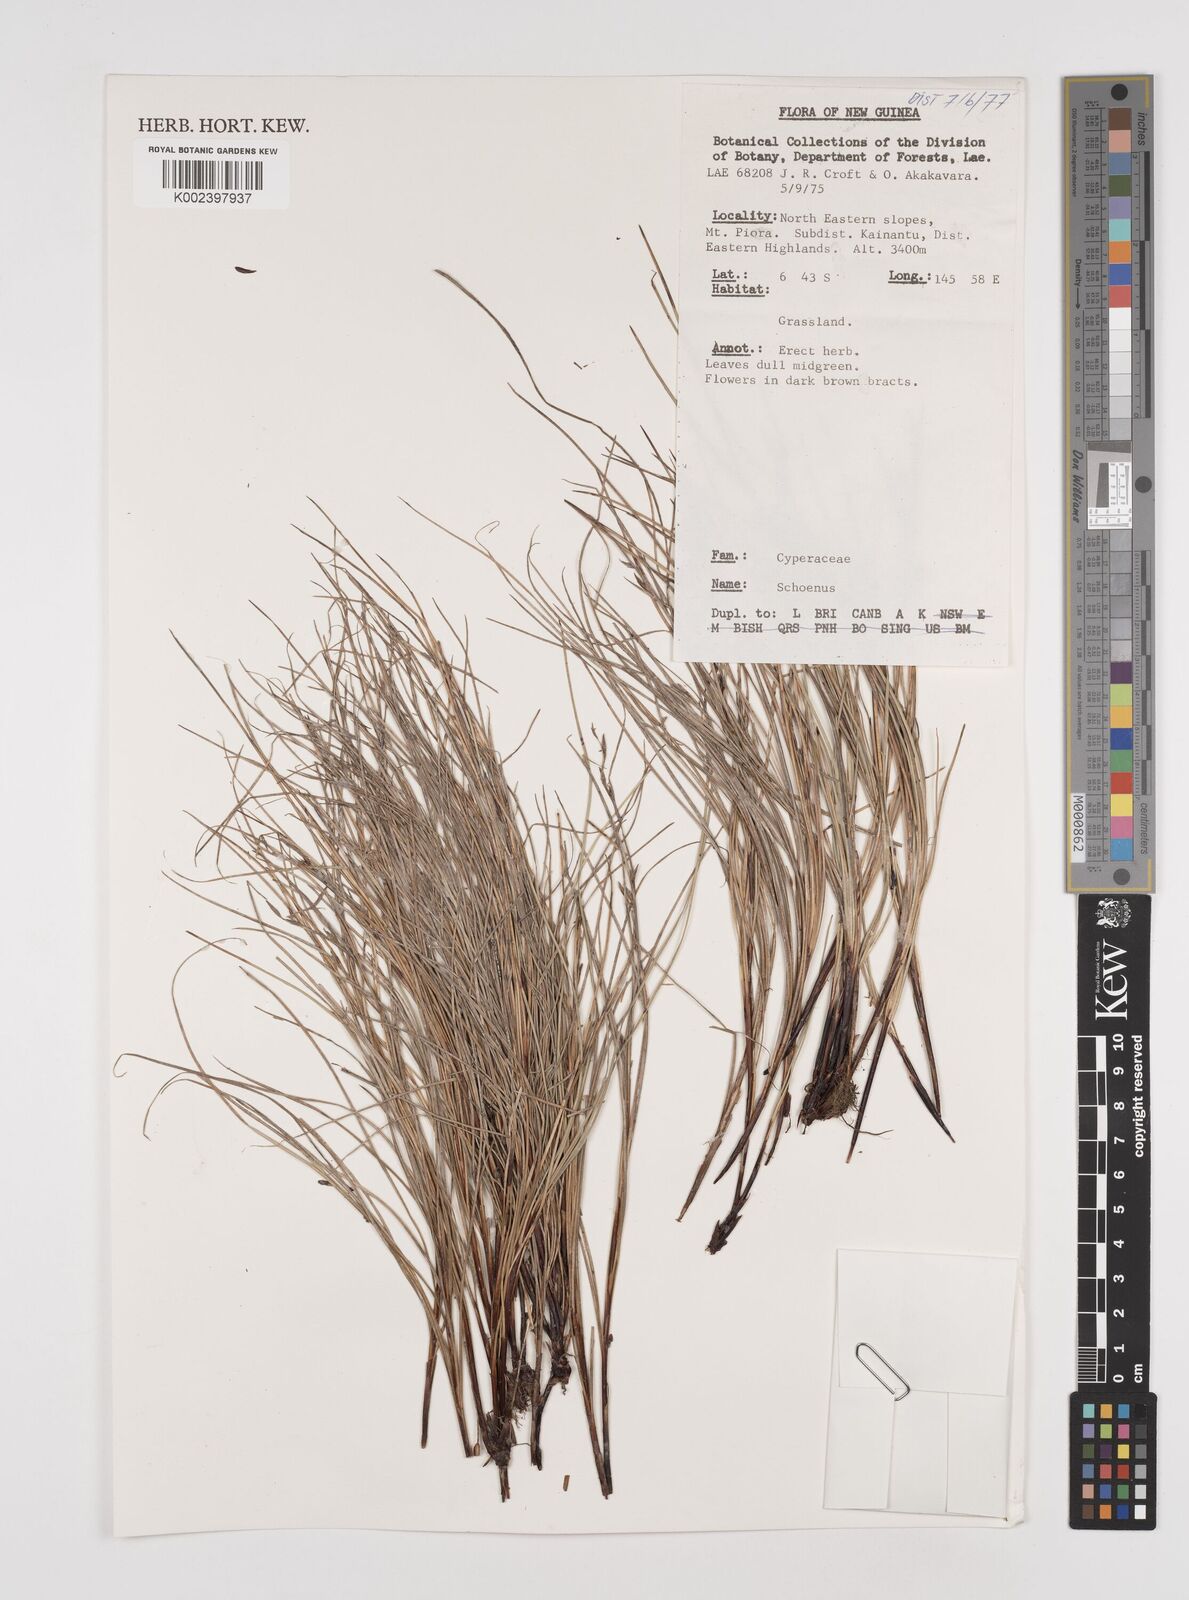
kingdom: Plantae
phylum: Tracheophyta
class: Liliopsida
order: Poales
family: Cyperaceae
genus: Schoenus
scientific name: Schoenus
